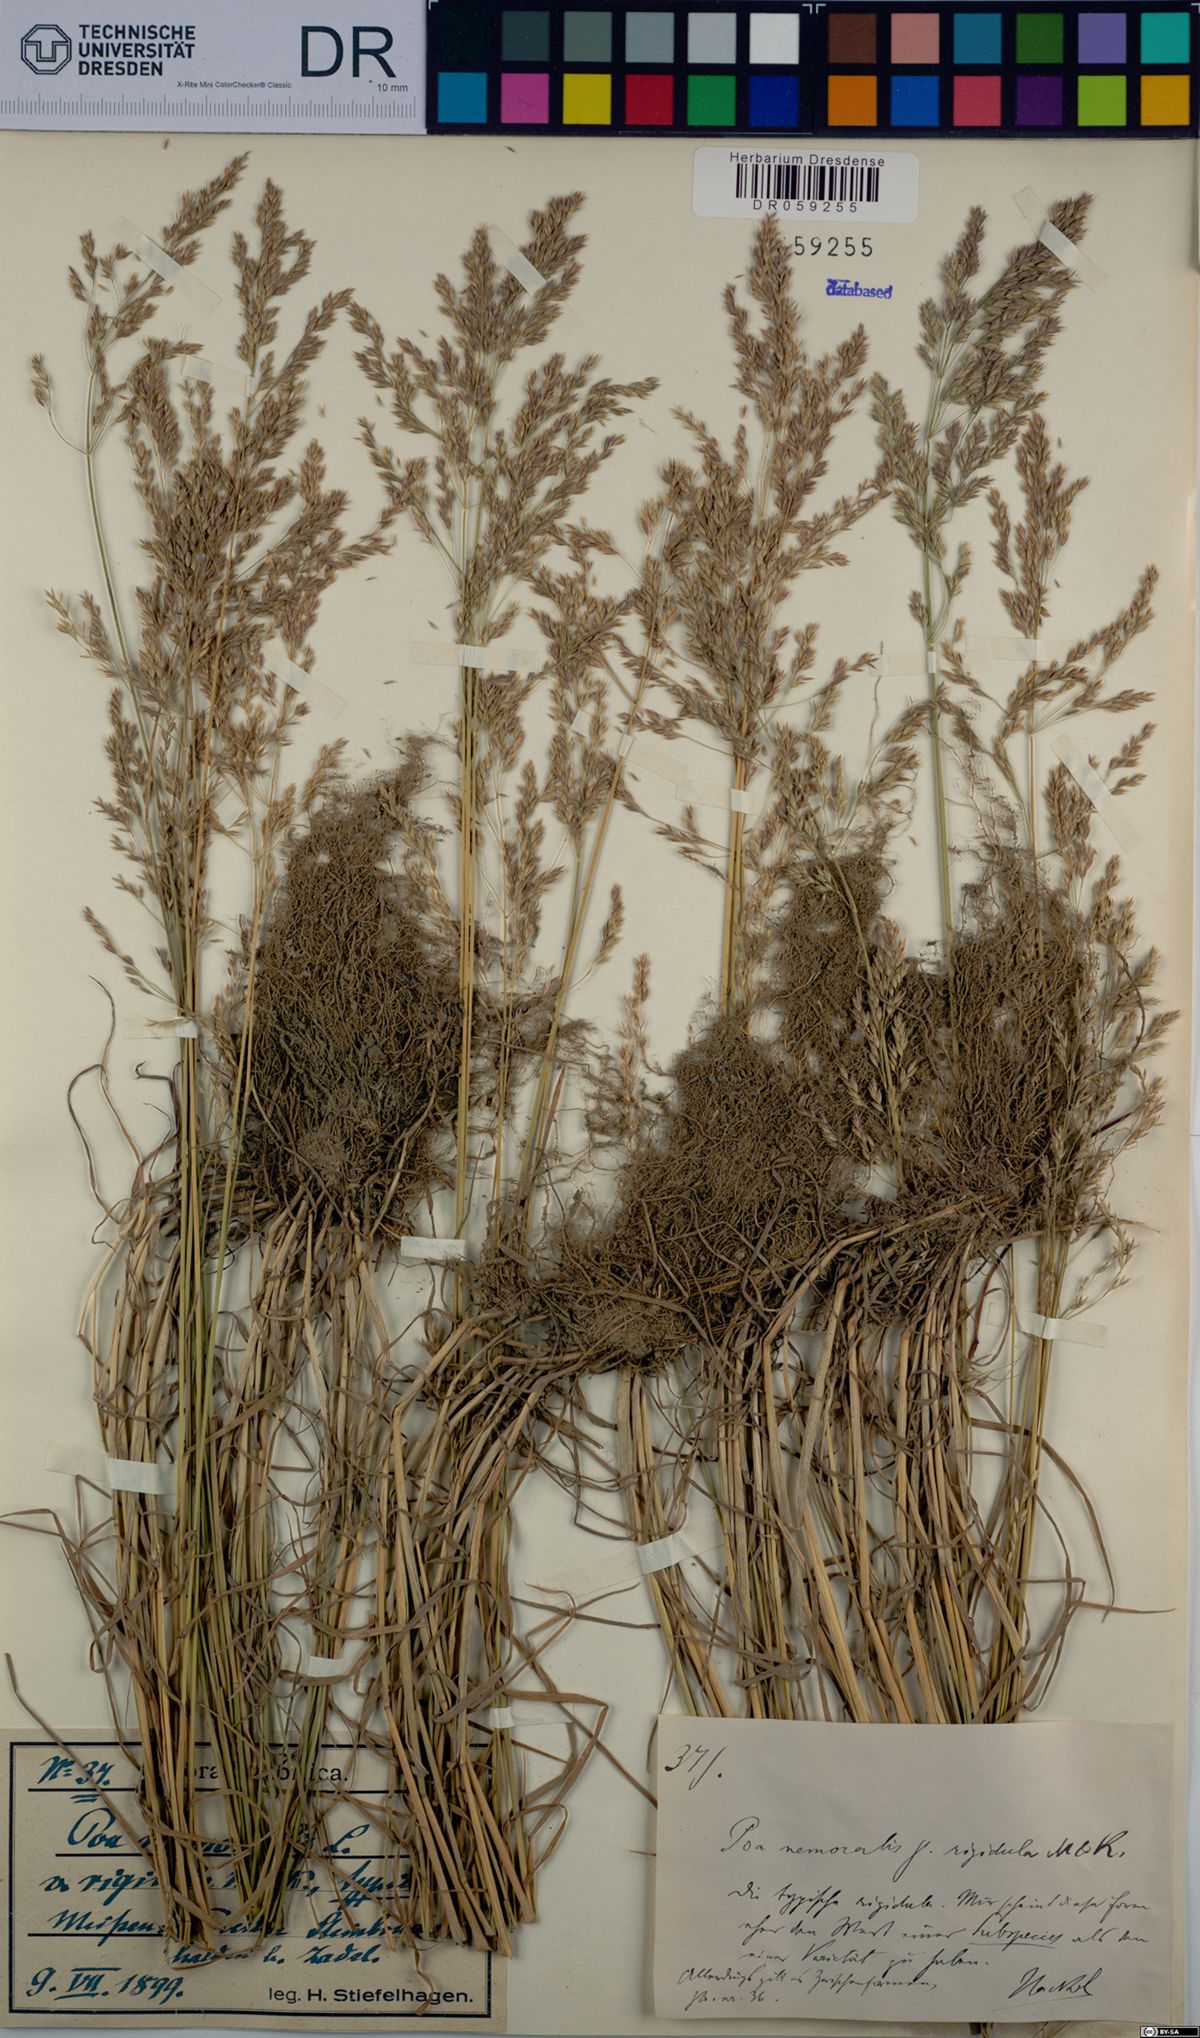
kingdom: Plantae
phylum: Tracheophyta
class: Liliopsida
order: Poales
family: Poaceae
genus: Poa
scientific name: Poa nemoralis
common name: Wood bluegrass
